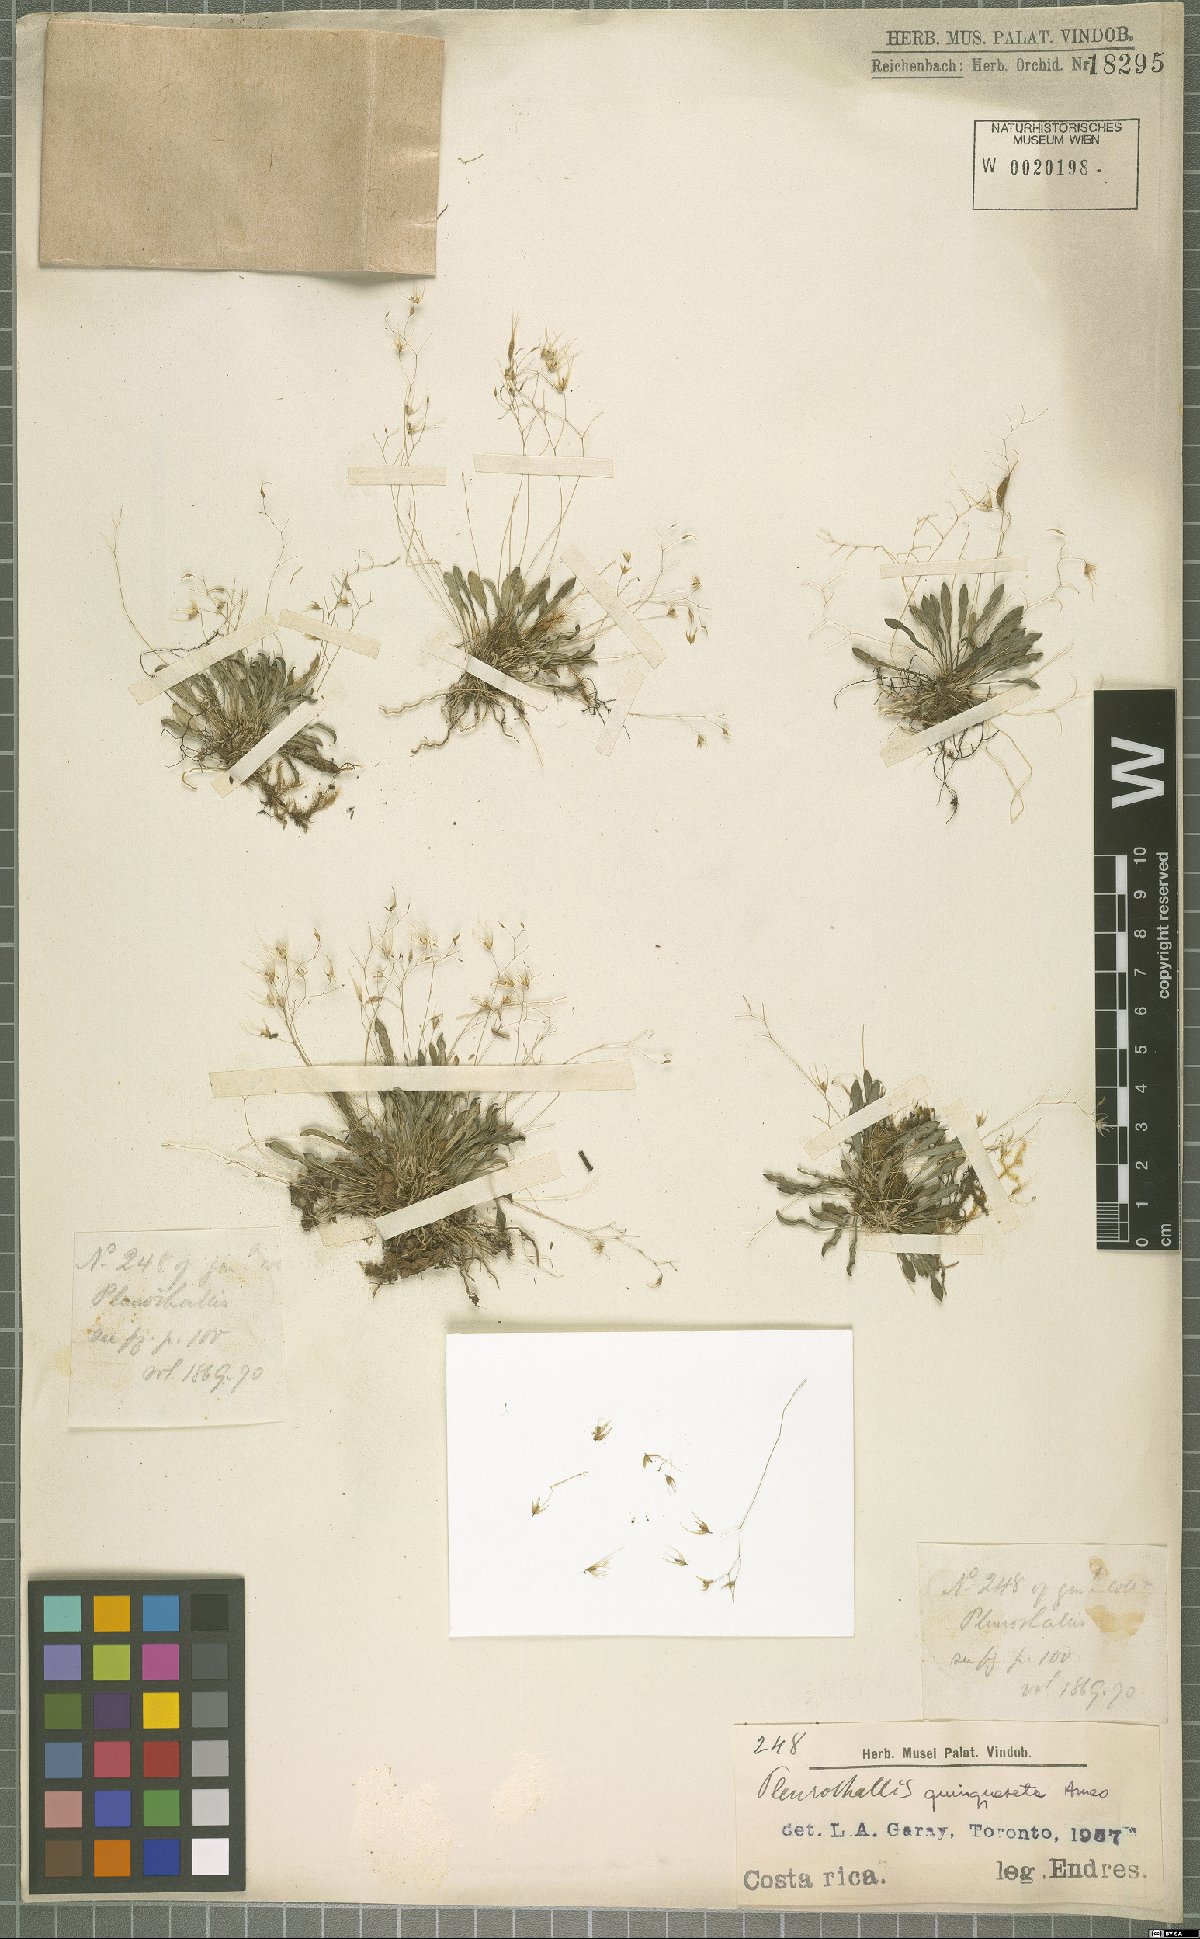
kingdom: Plantae
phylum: Tracheophyta
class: Liliopsida
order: Asparagales
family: Orchidaceae
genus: Muscarella
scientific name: Muscarella quinqueseta
